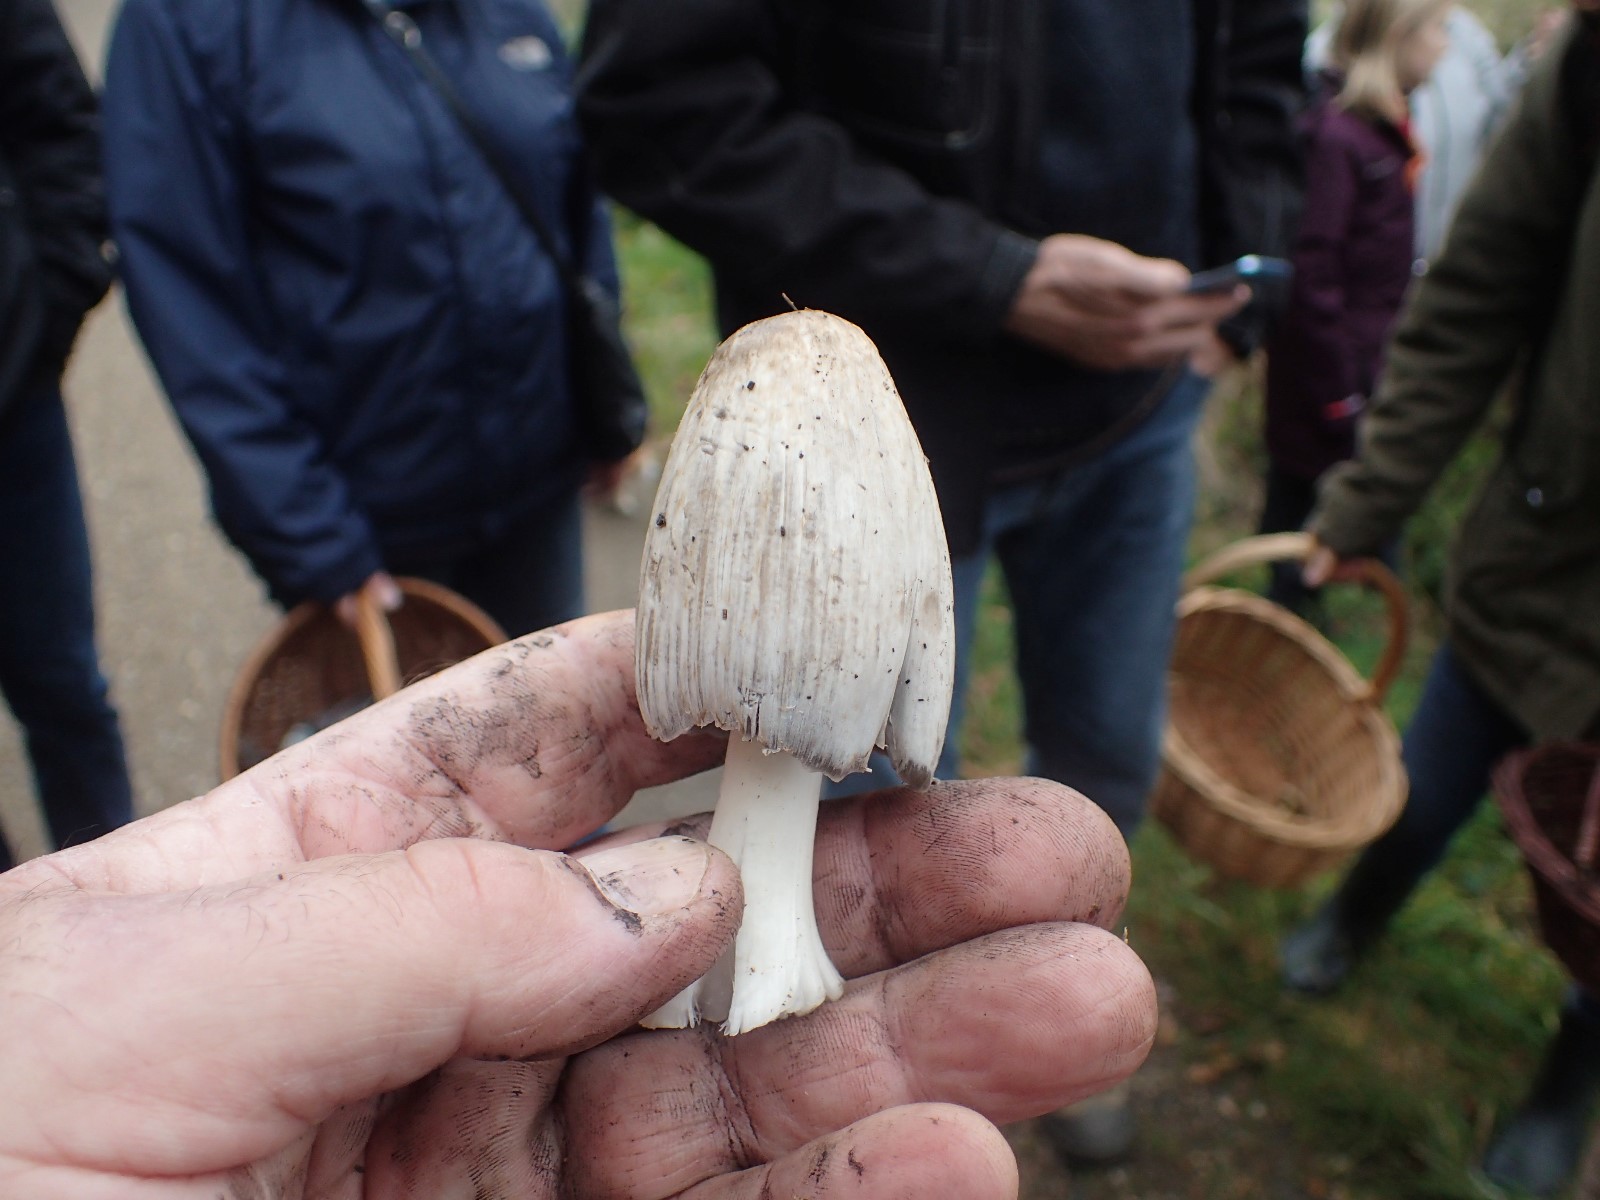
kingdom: Fungi
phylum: Basidiomycota
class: Agaricomycetes
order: Agaricales
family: Psathyrellaceae
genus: Coprinopsis
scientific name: Coprinopsis atramentaria
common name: almindelig blækhat
